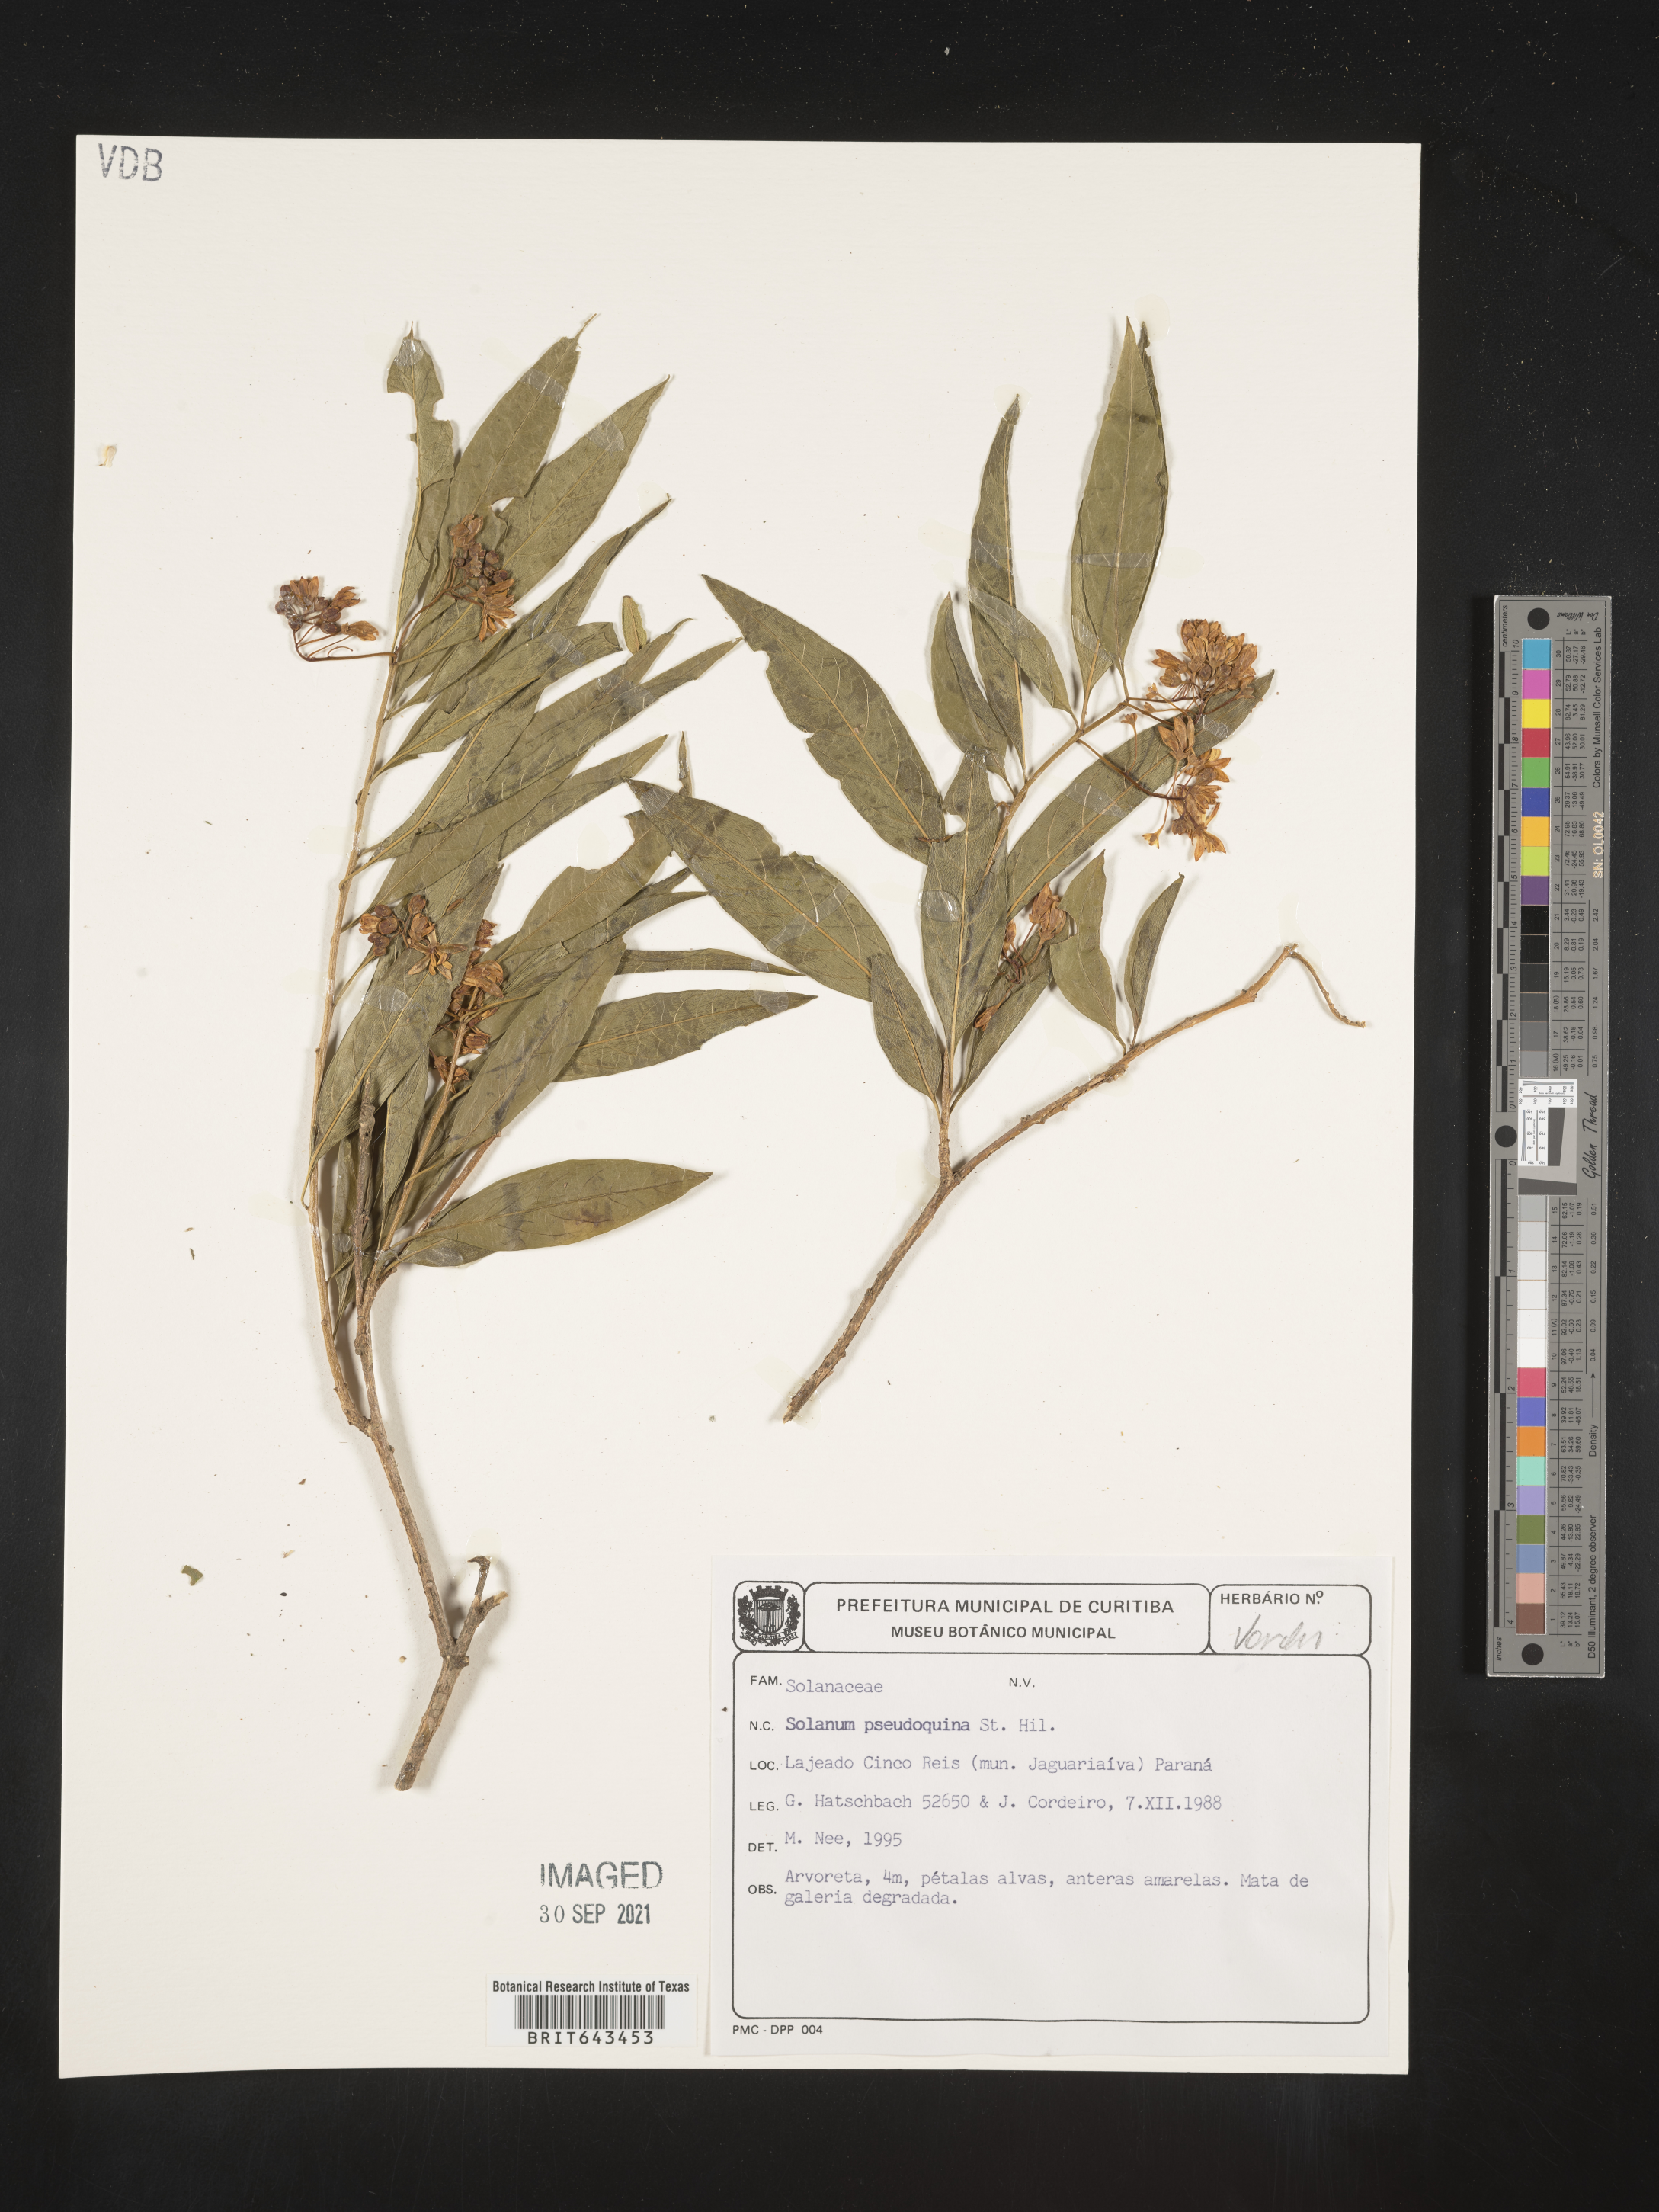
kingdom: Plantae
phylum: Tracheophyta
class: Magnoliopsida
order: Solanales
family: Solanaceae
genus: Solanum
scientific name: Solanum
